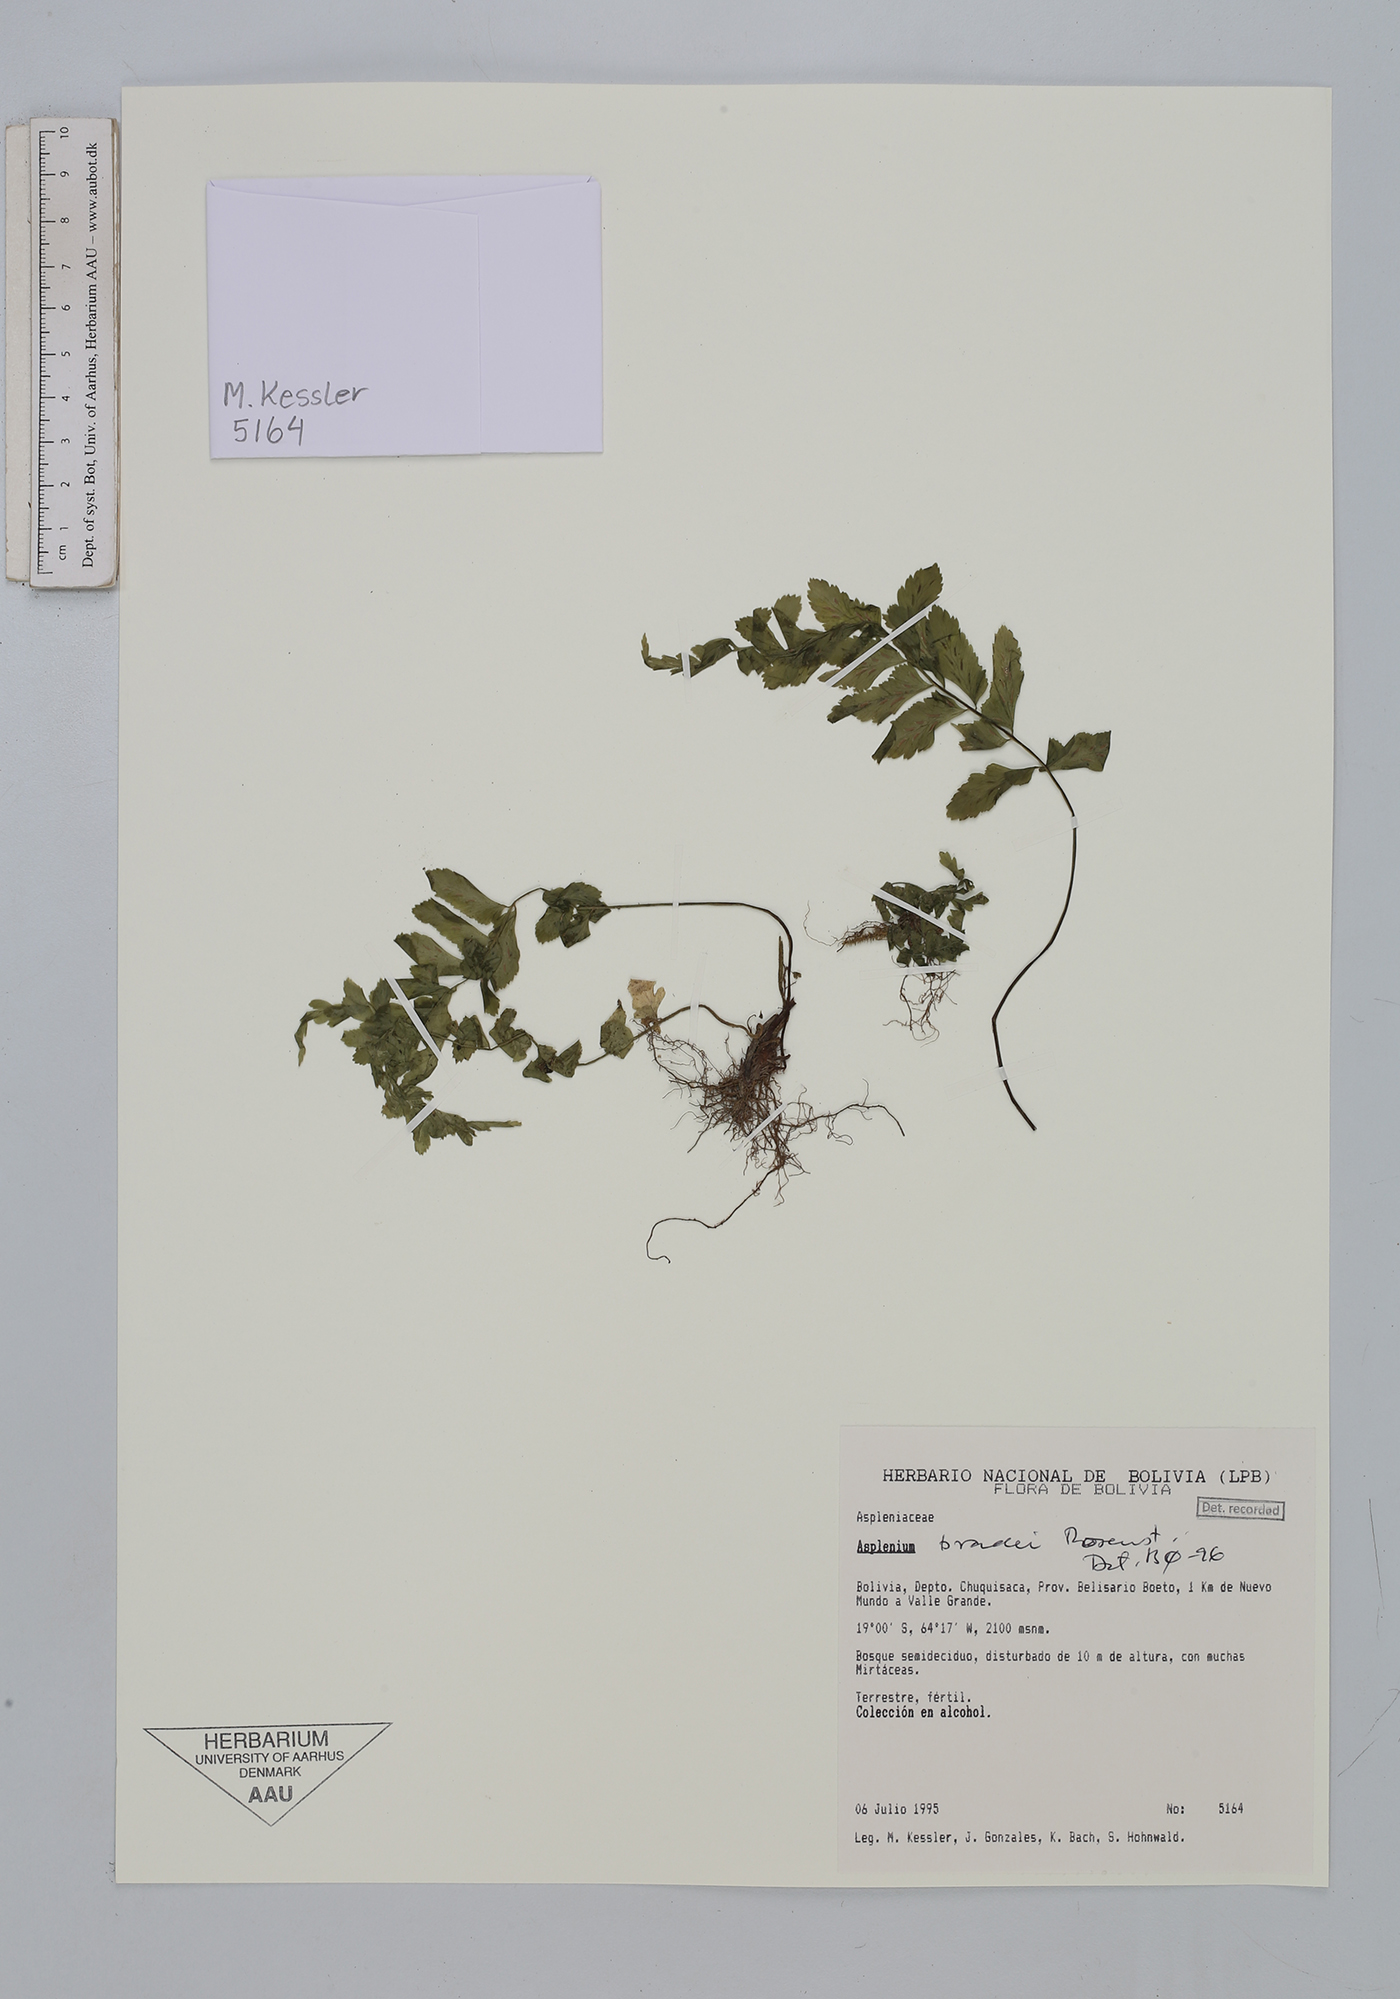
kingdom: Plantae
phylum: Tracheophyta
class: Polypodiopsida
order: Polypodiales
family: Aspleniaceae
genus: Asplenium
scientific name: Asplenium bradei
